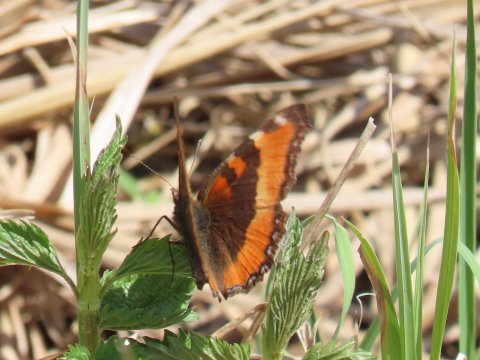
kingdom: Animalia
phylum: Arthropoda
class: Insecta
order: Lepidoptera
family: Nymphalidae
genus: Aglais
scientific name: Aglais milberti
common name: Milbert's Tortoiseshell
